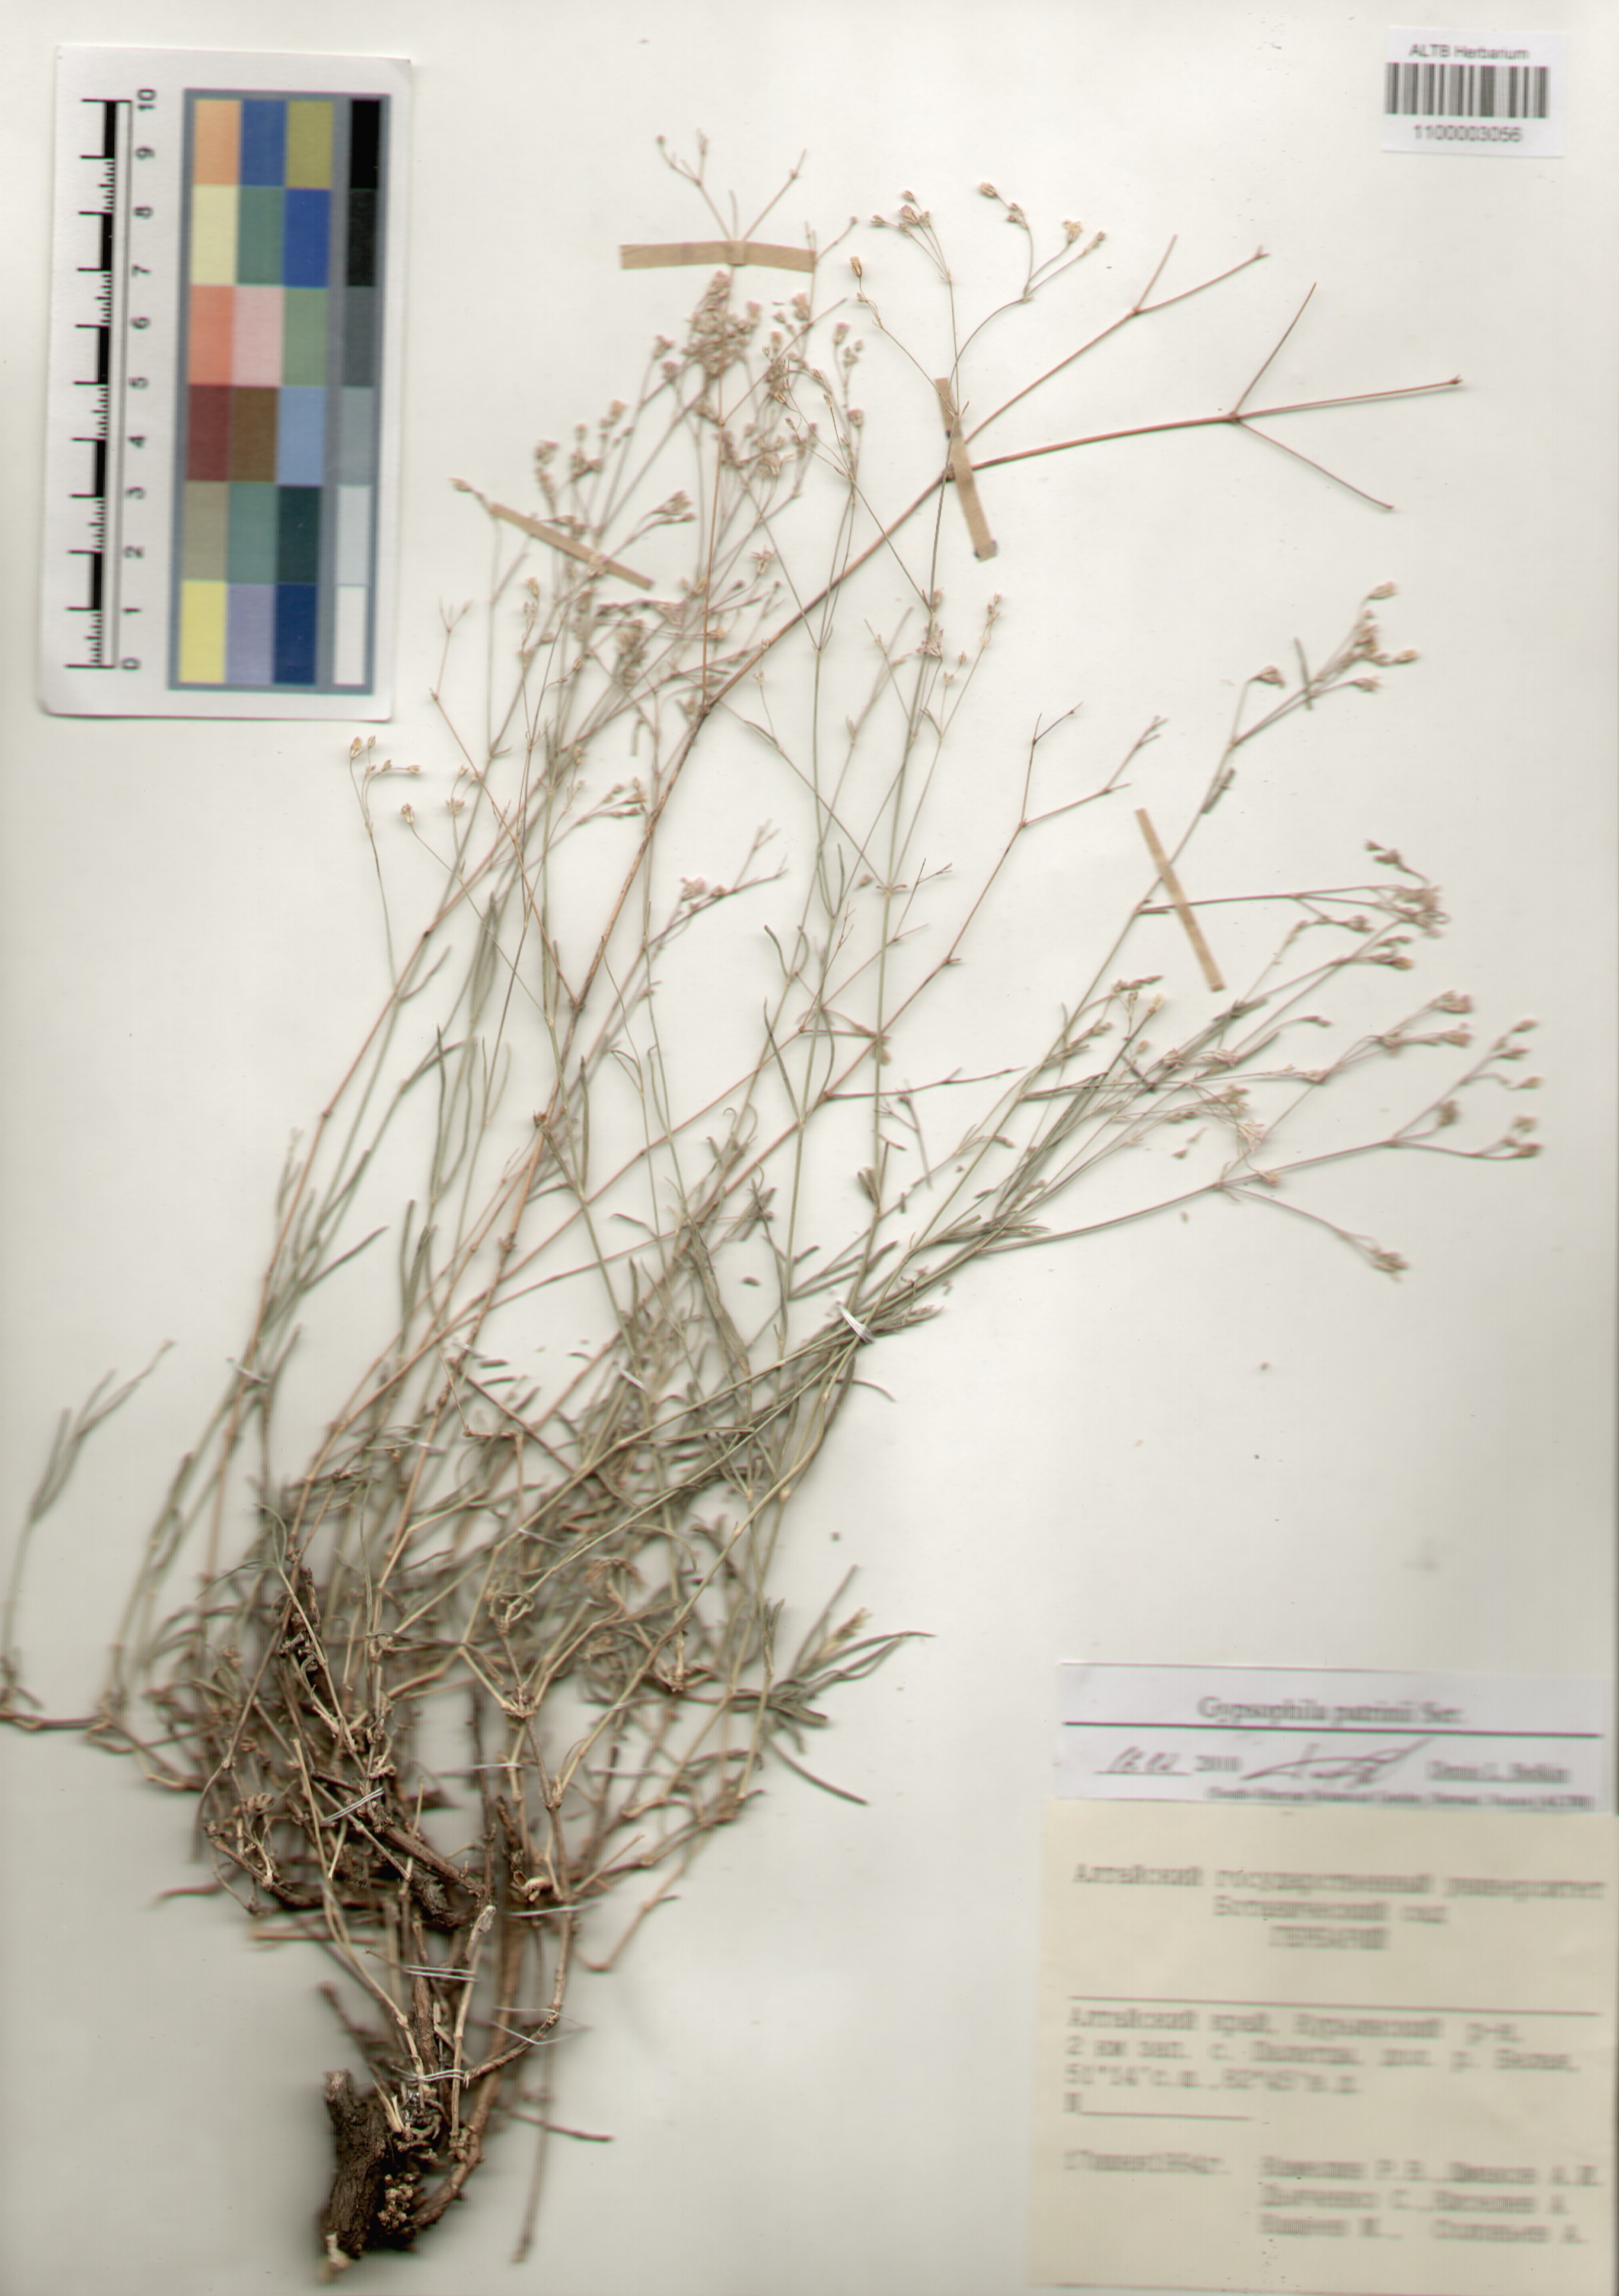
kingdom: Plantae
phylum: Tracheophyta
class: Magnoliopsida
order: Caryophyllales
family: Caryophyllaceae
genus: Gypsophila
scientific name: Gypsophila patrinii
